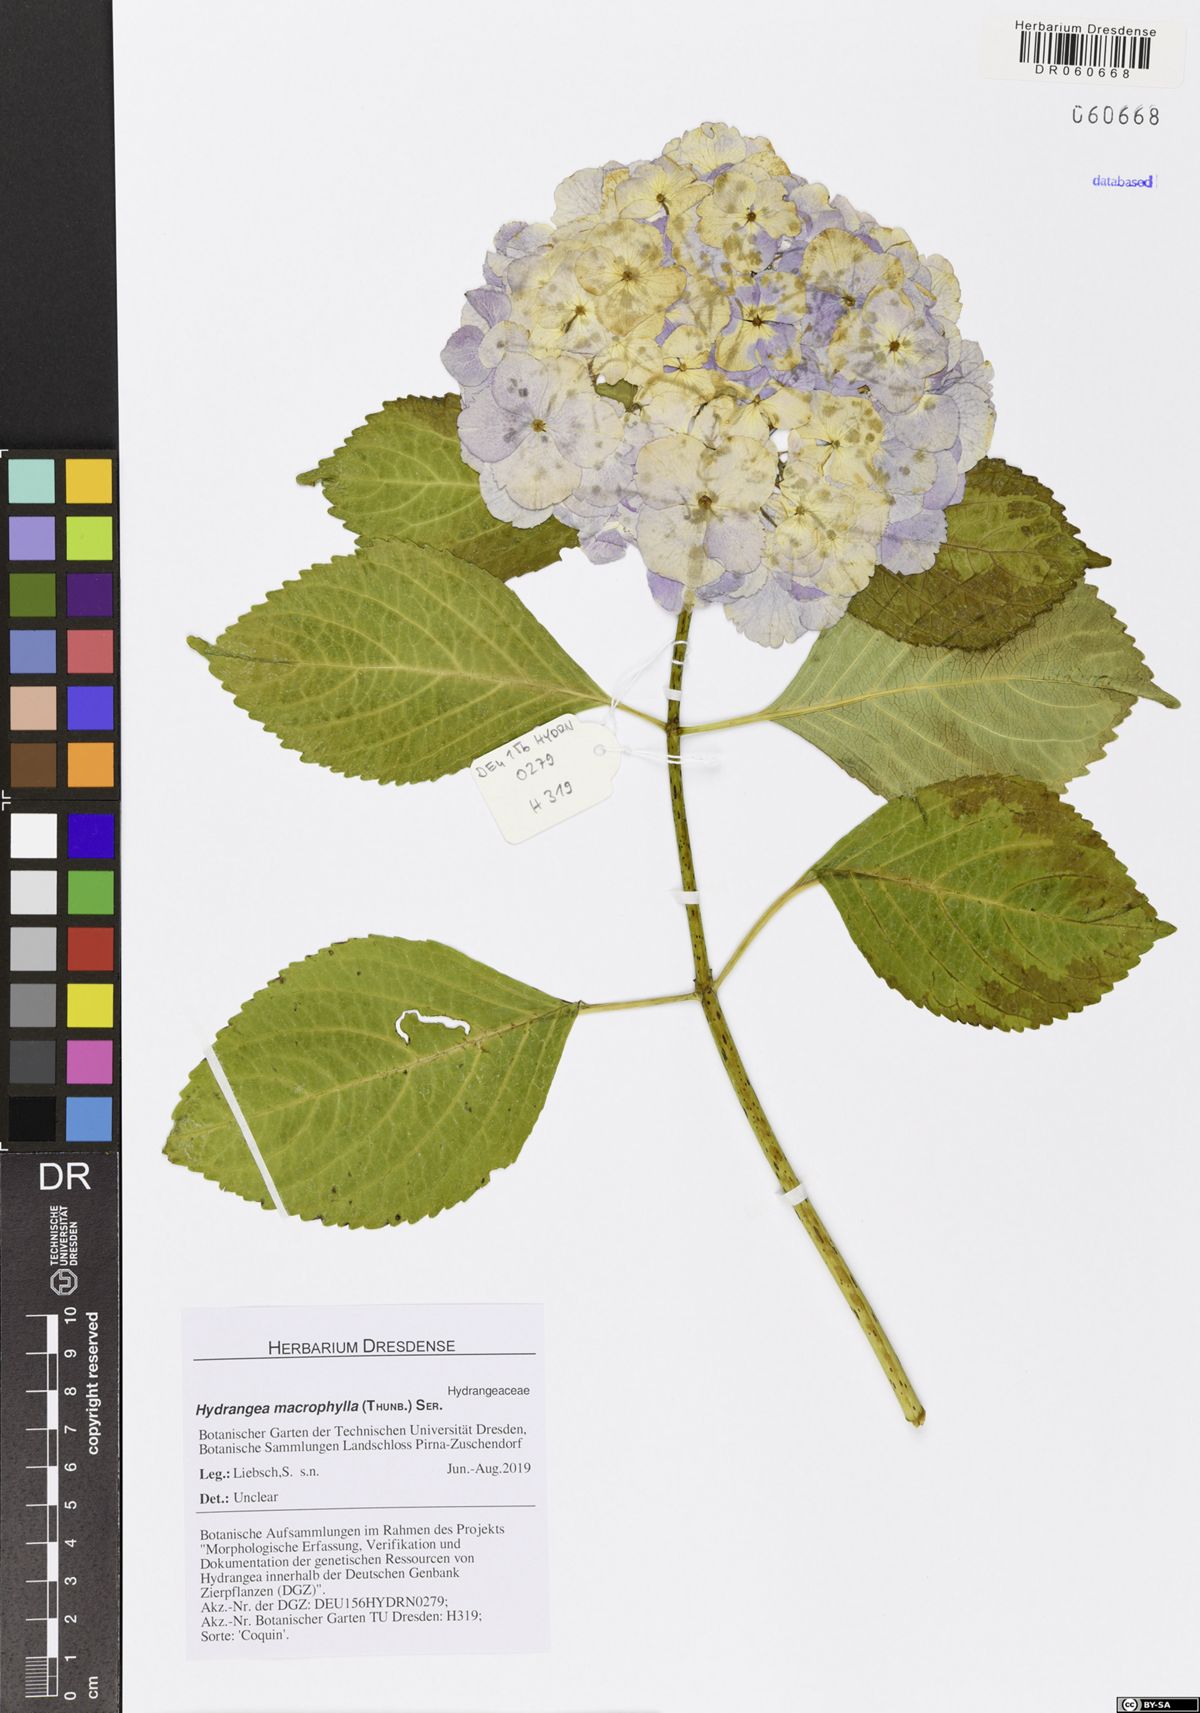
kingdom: Plantae
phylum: Tracheophyta
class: Magnoliopsida
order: Cornales
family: Hydrangeaceae
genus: Hydrangea
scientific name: Hydrangea macrophylla
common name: Hydrangea
